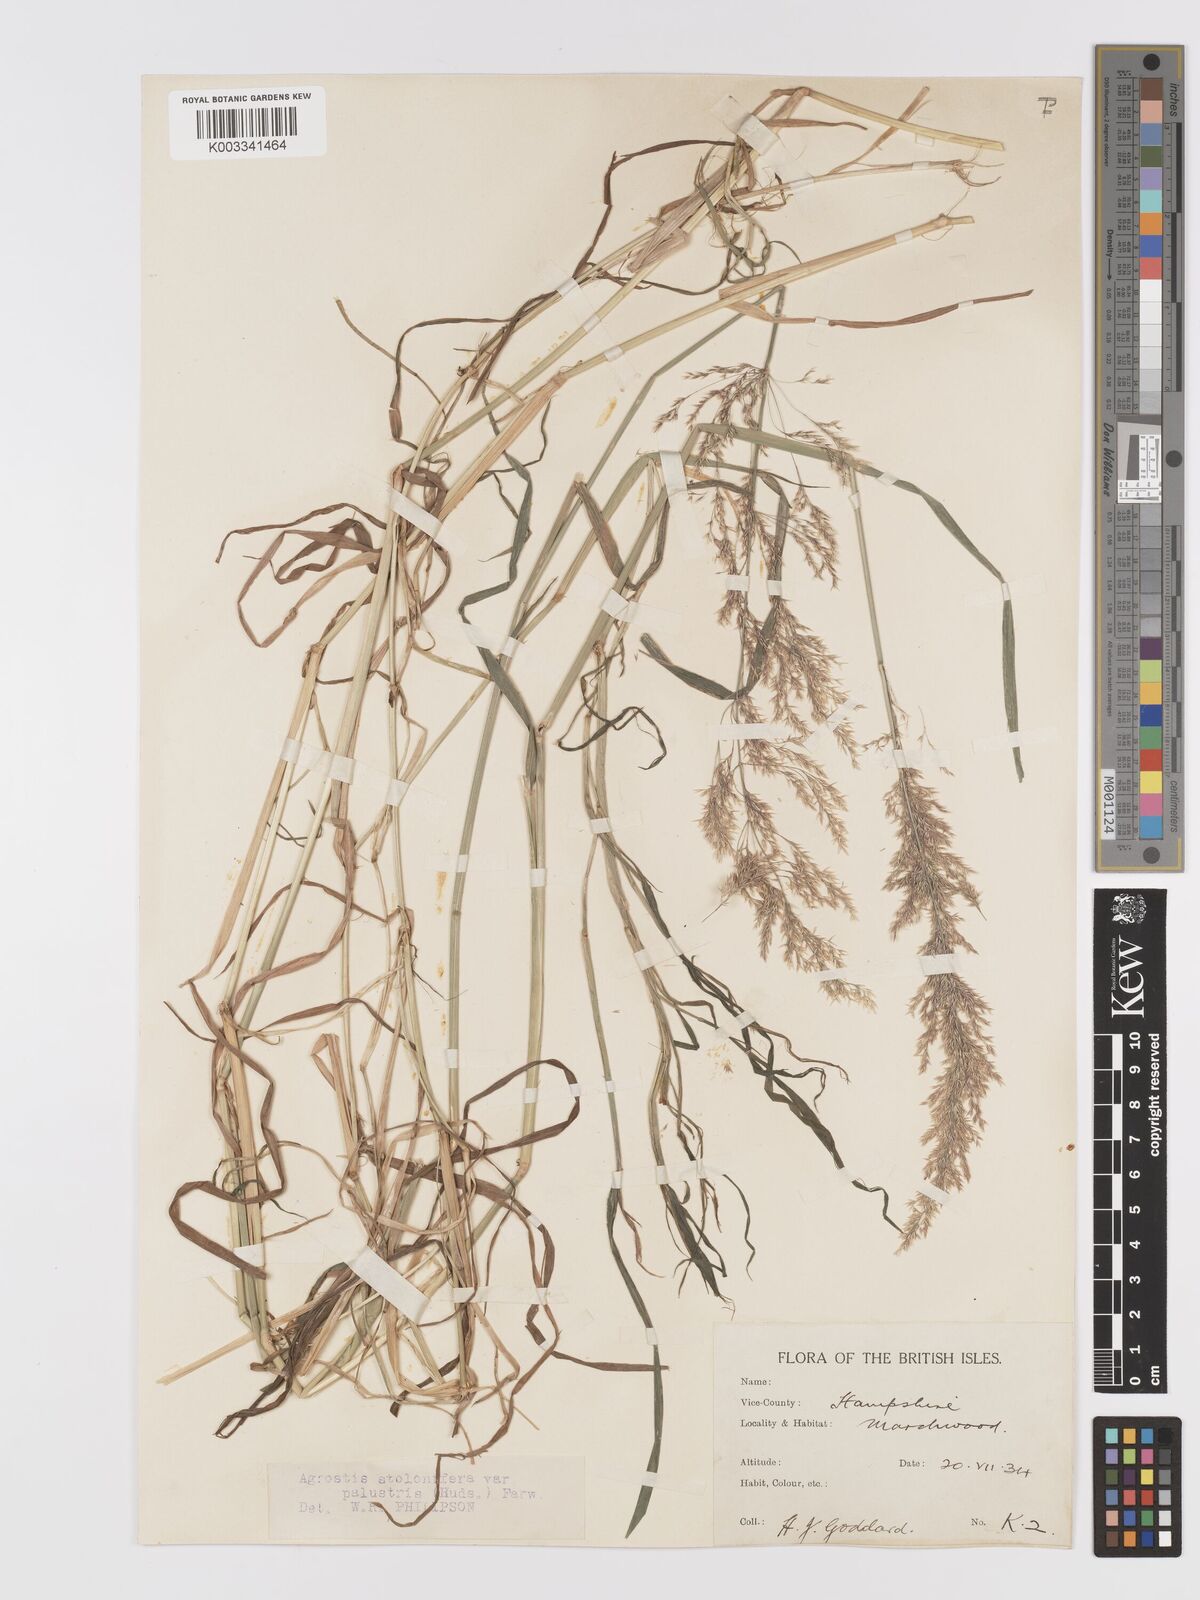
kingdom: Plantae
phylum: Tracheophyta
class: Liliopsida
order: Poales
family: Poaceae
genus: Agrostis
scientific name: Agrostis stolonifera
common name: Creeping bentgrass
